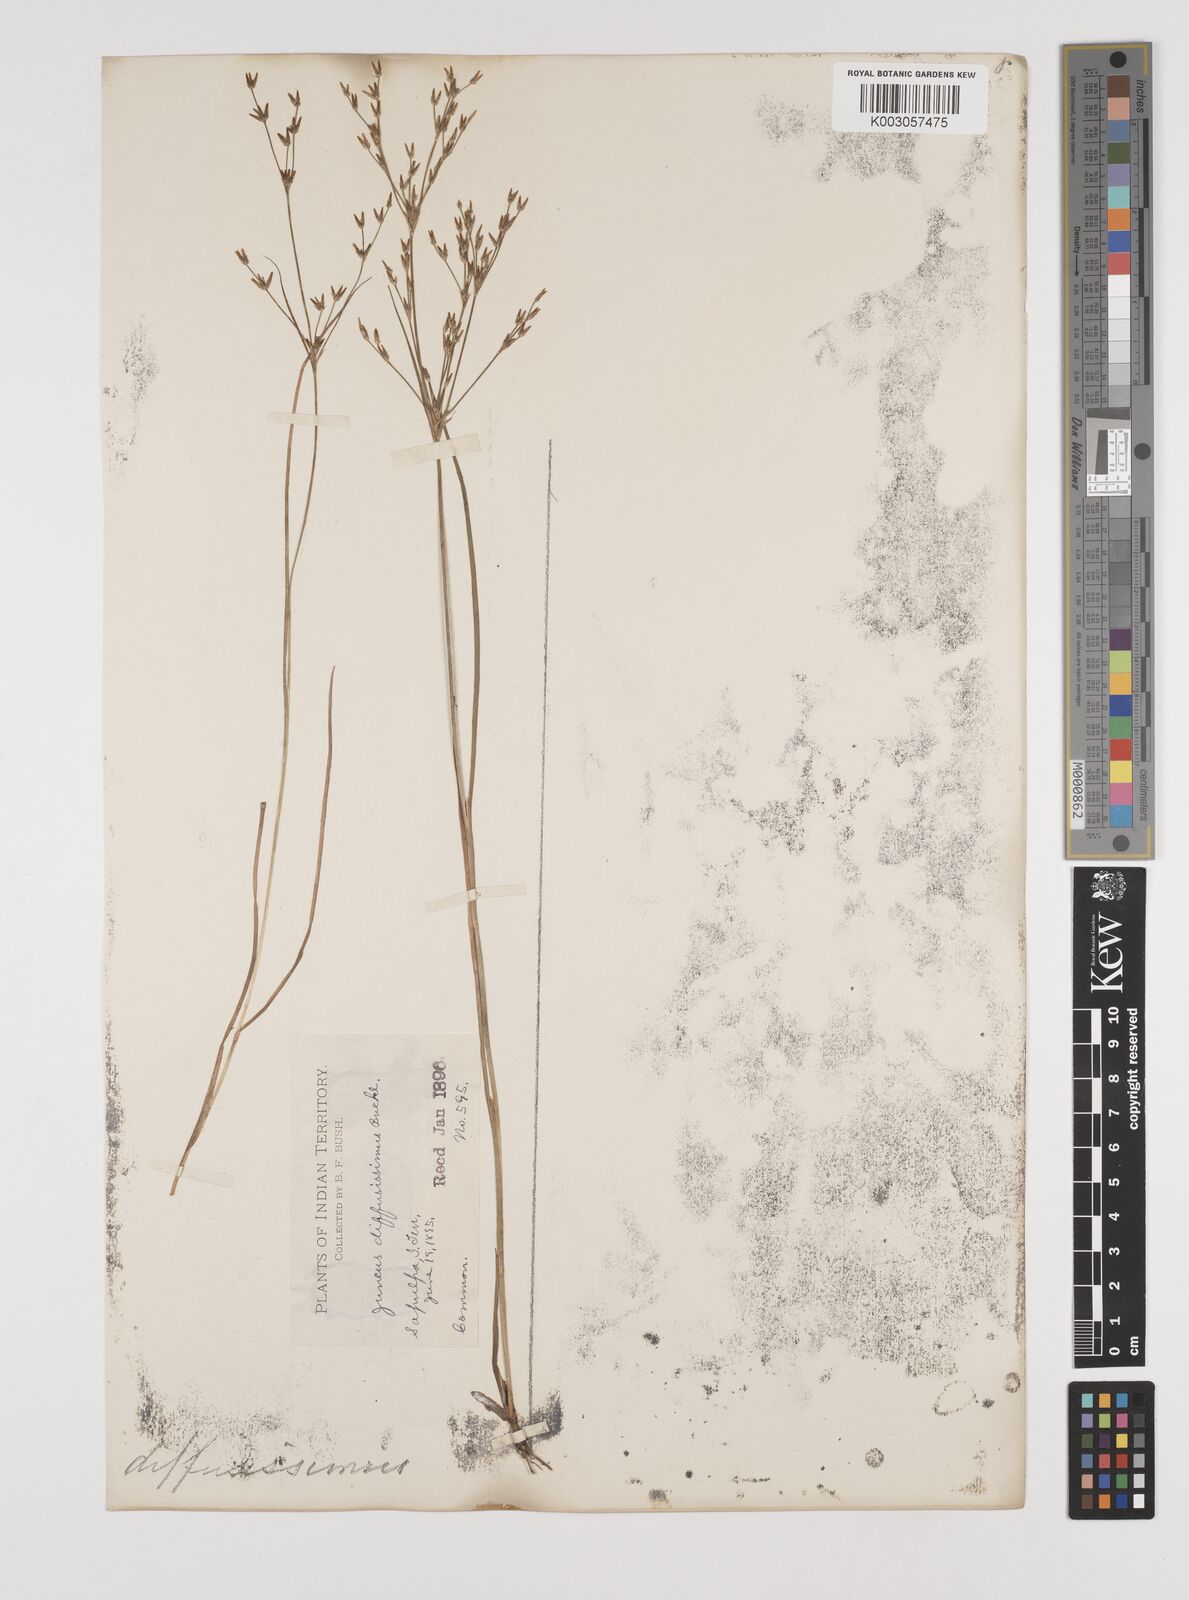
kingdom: Plantae
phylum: Tracheophyta
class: Liliopsida
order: Poales
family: Juncaceae
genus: Juncus
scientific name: Juncus diffusissimus
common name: Slimpod rush
